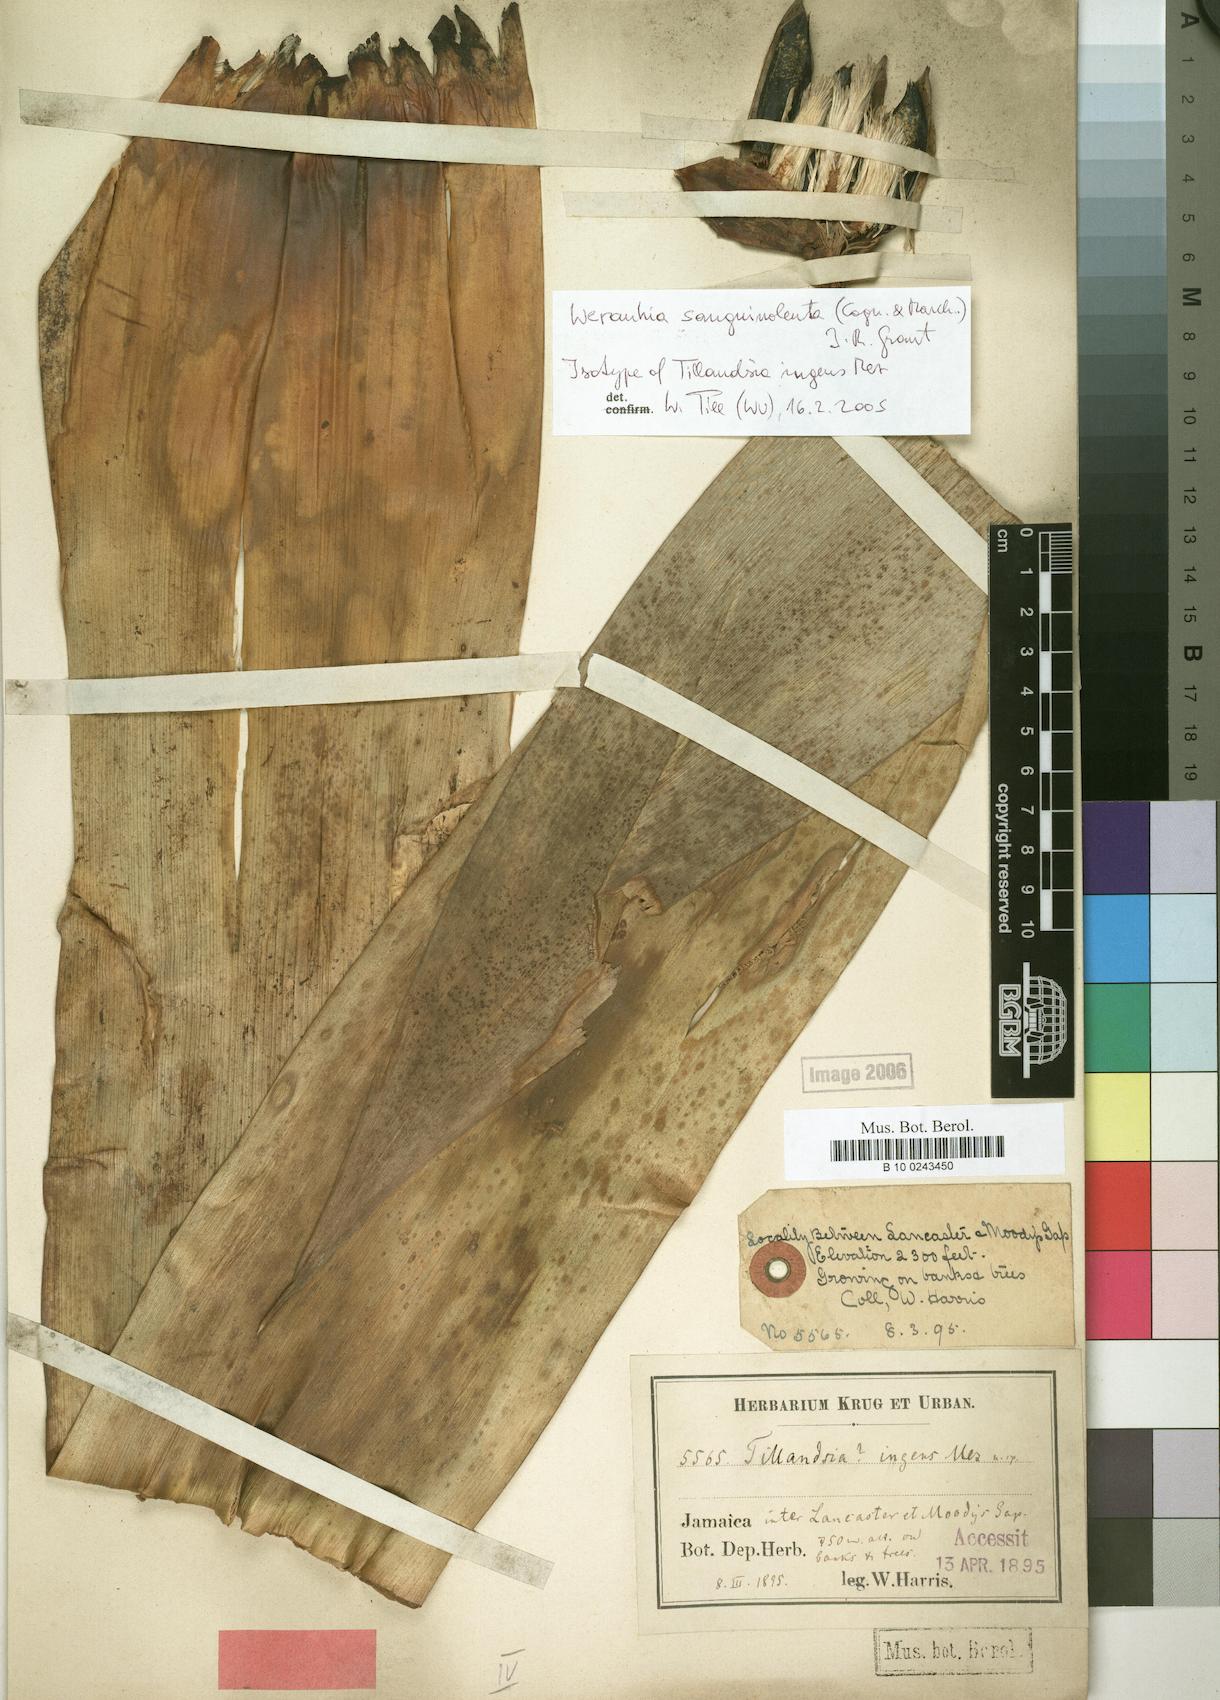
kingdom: Plantae
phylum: Tracheophyta
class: Liliopsida
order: Poales
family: Bromeliaceae
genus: Werauhia
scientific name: Werauhia sanguinolenta
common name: Bromeliad
